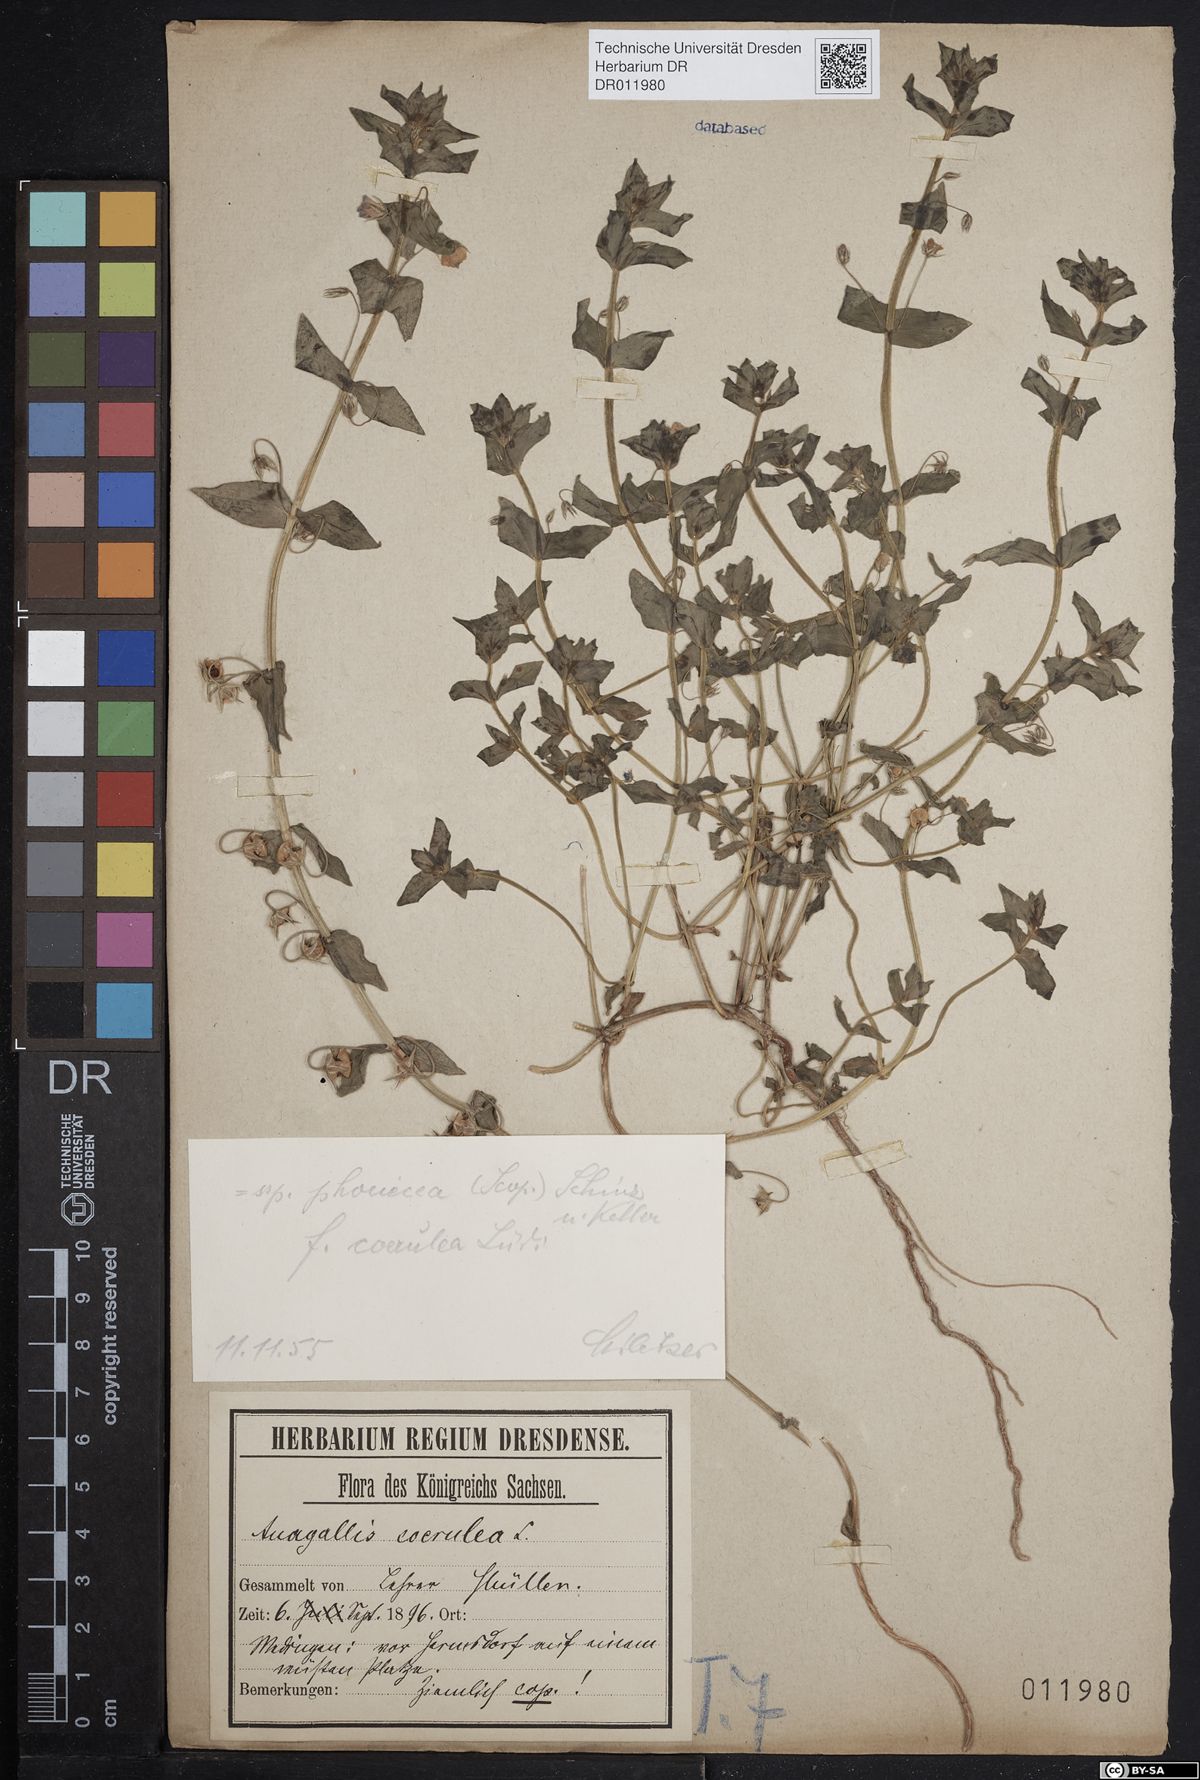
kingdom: Plantae
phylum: Tracheophyta
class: Magnoliopsida
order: Ericales
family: Primulaceae
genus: Lysimachia
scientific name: Lysimachia arvensis
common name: Scarlet pimpernel
